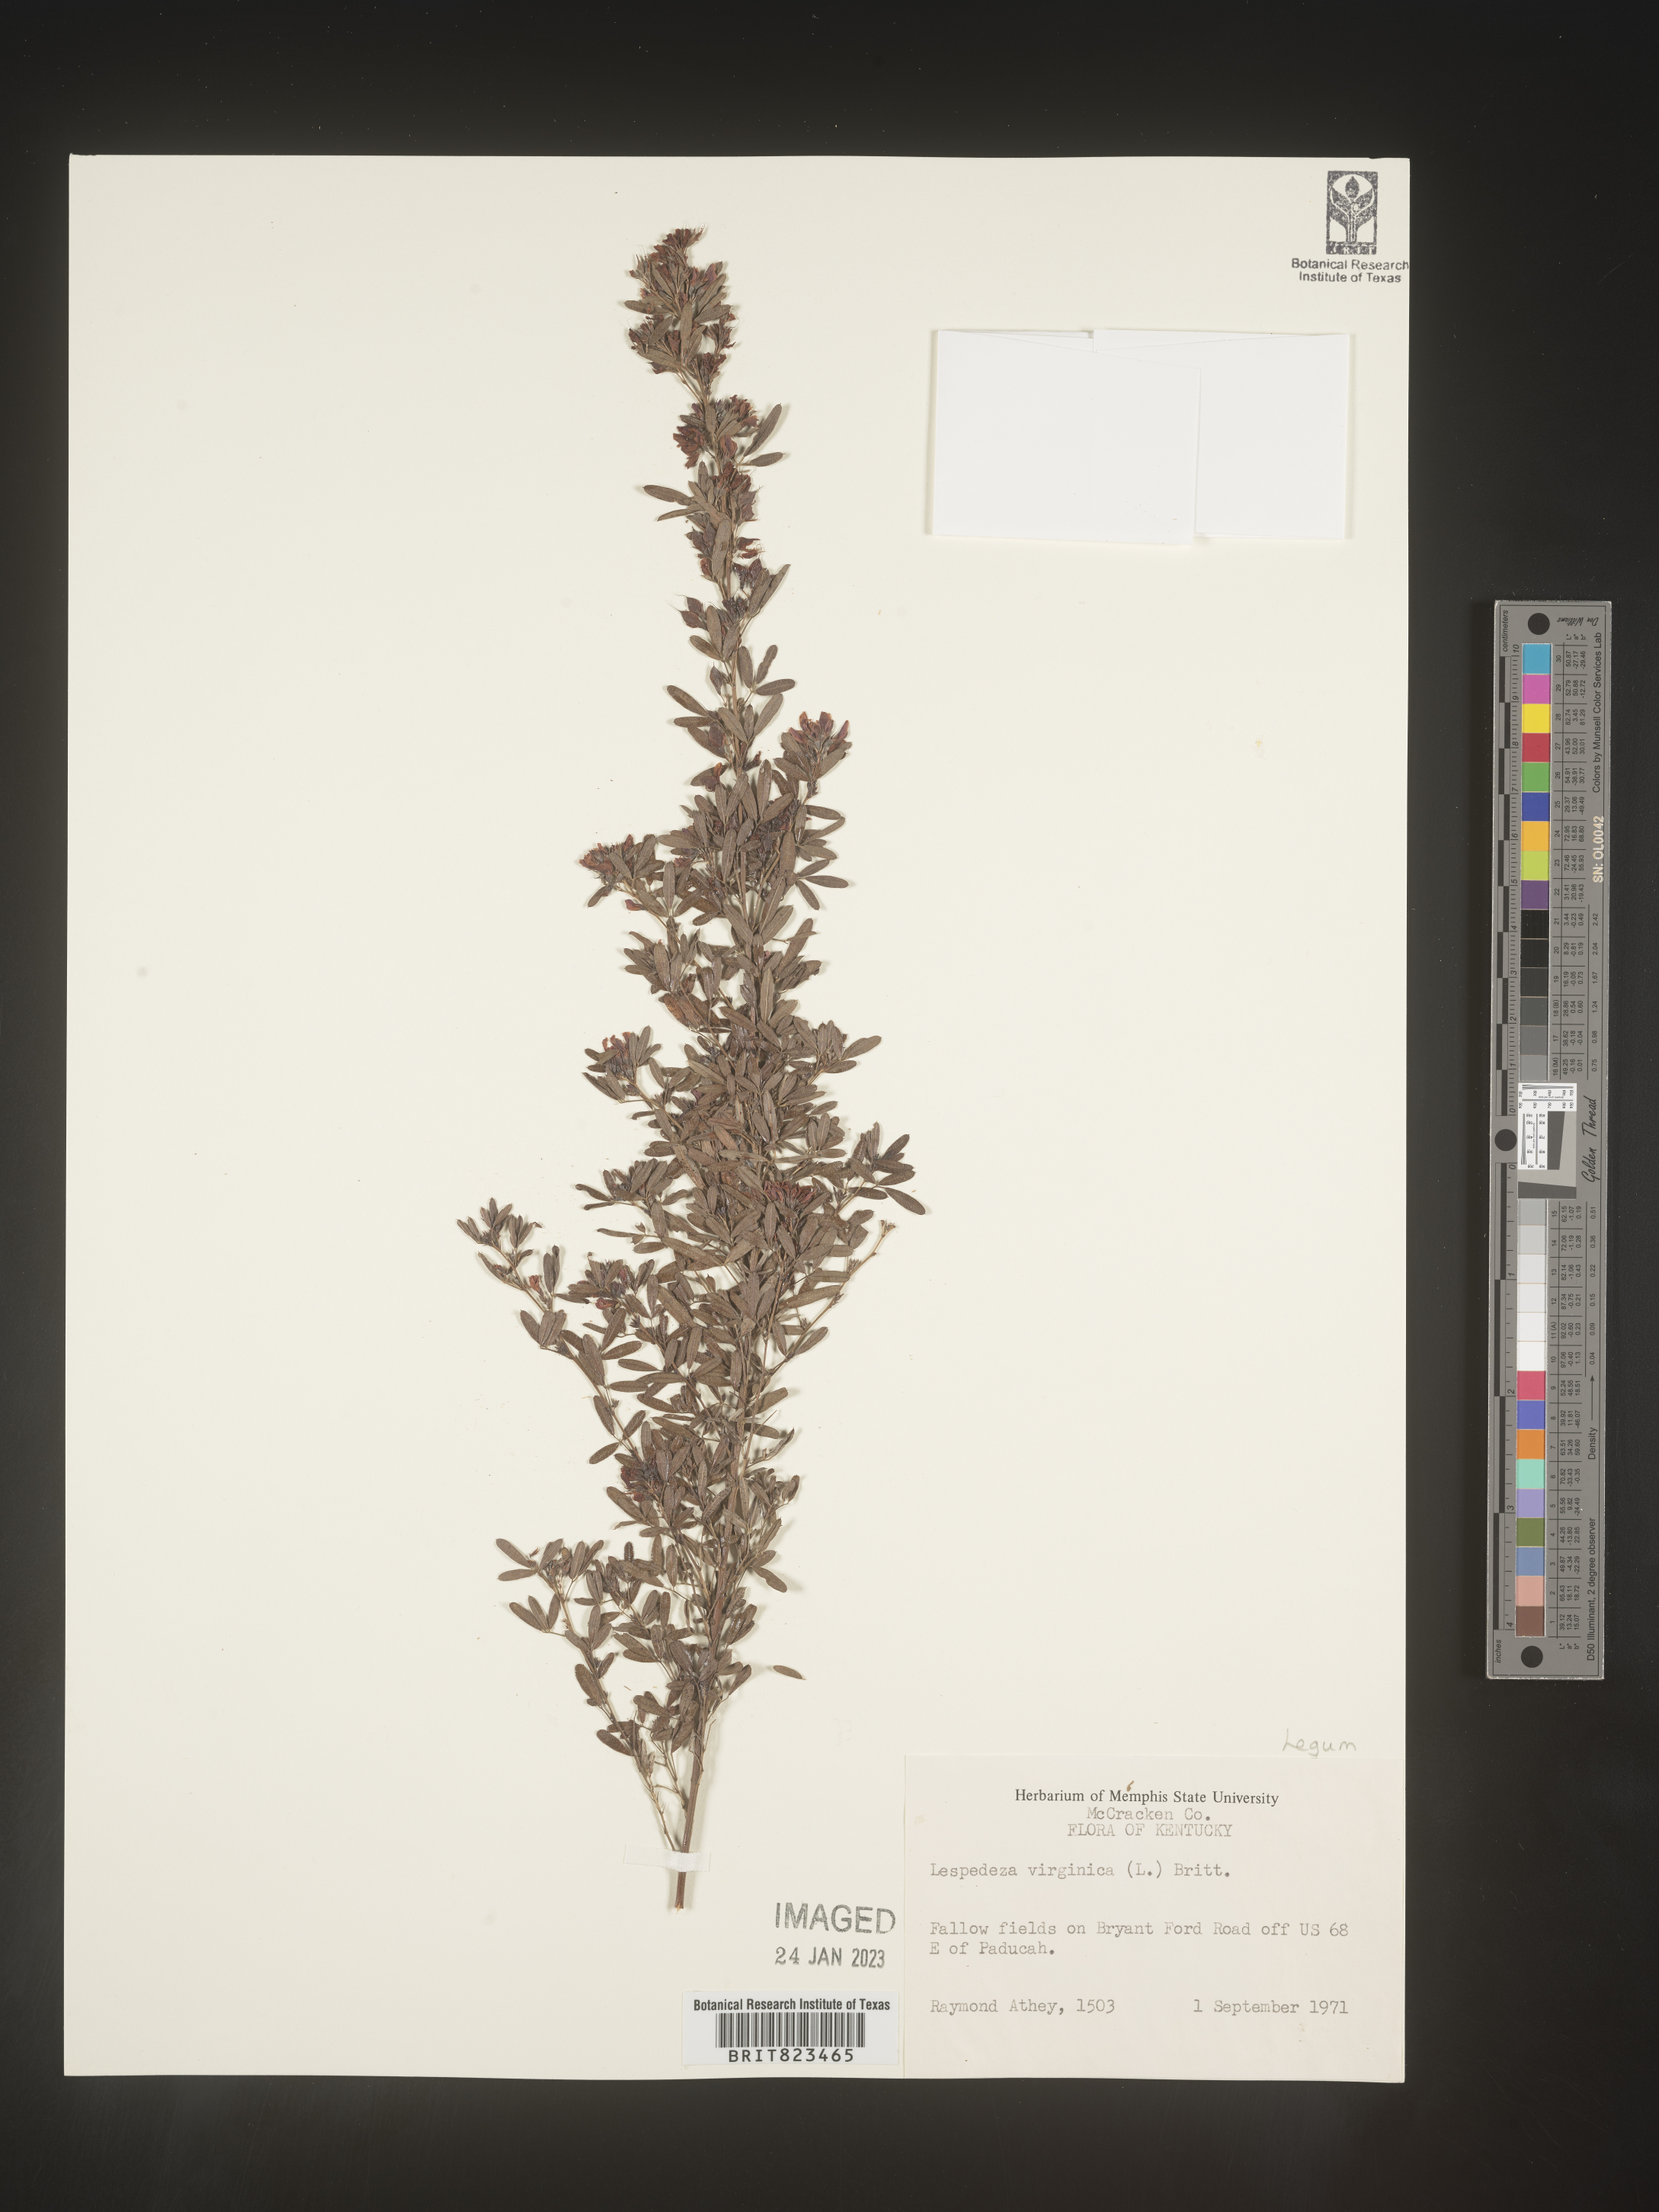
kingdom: Plantae
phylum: Tracheophyta
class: Magnoliopsida
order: Fabales
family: Fabaceae
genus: Lespedeza
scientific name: Lespedeza virginica
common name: Slender bush-clover
